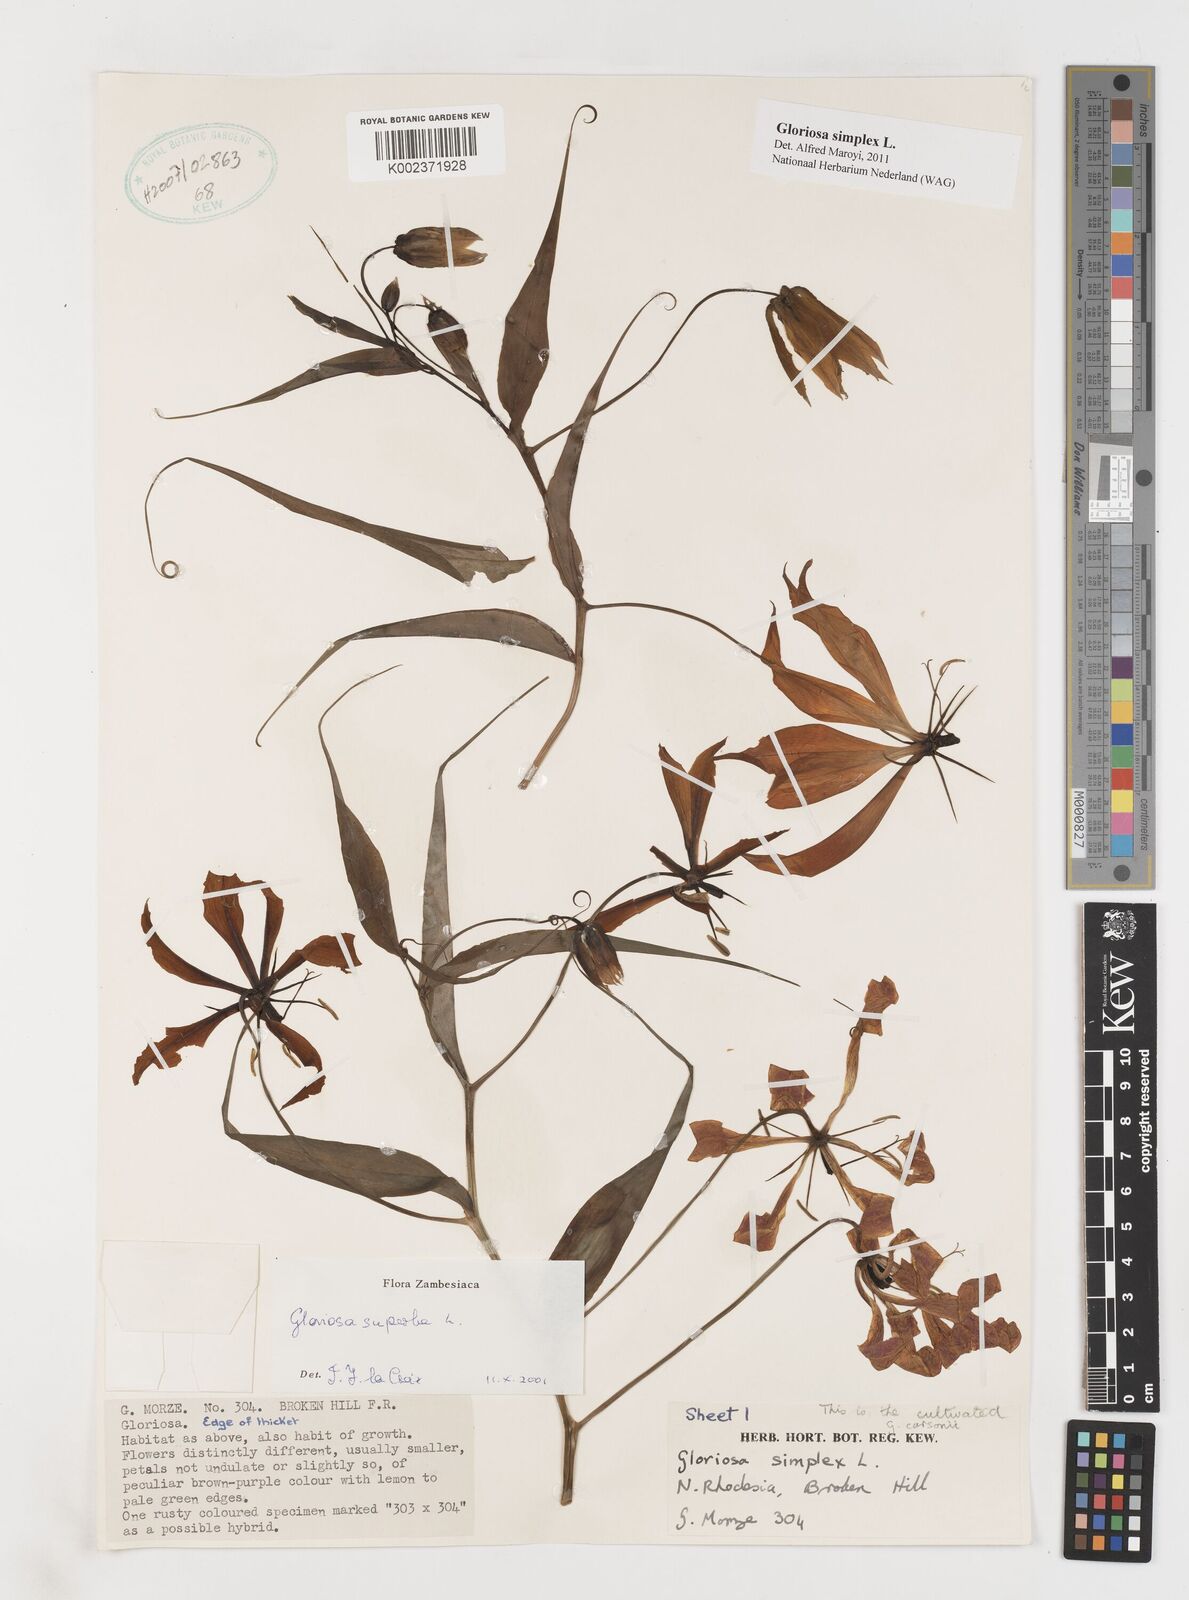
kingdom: Plantae
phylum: Tracheophyta
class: Liliopsida
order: Liliales
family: Colchicaceae
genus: Gloriosa
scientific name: Gloriosa simplex
